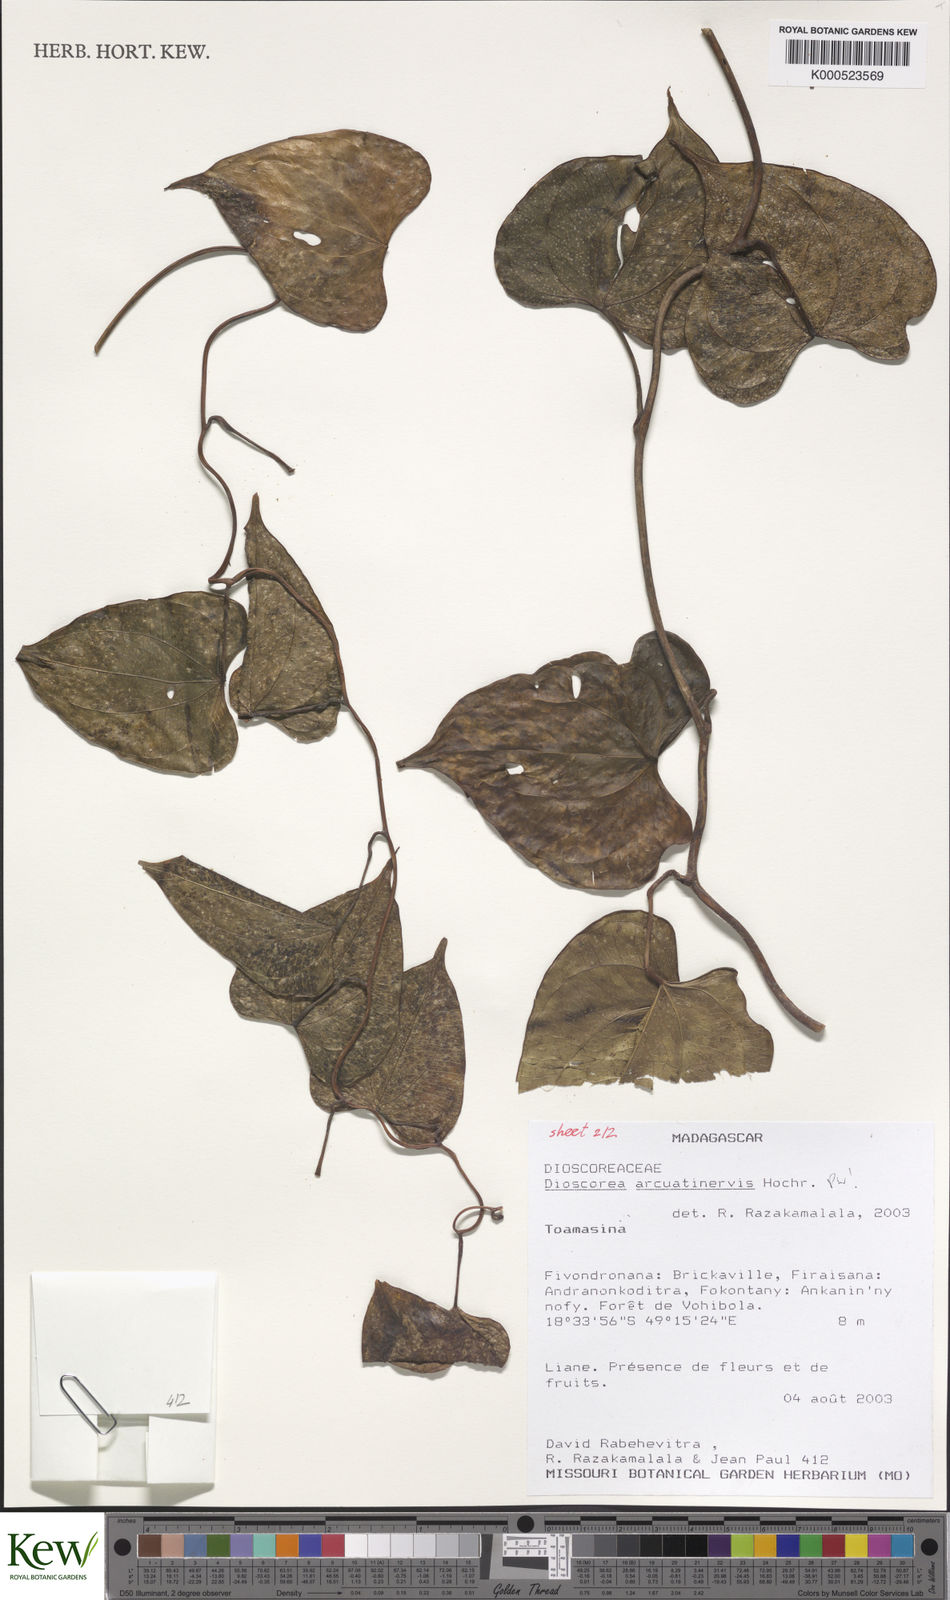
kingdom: Plantae
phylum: Tracheophyta
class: Liliopsida
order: Dioscoreales
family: Dioscoreaceae
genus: Dioscorea
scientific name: Dioscorea arcuatinervis
